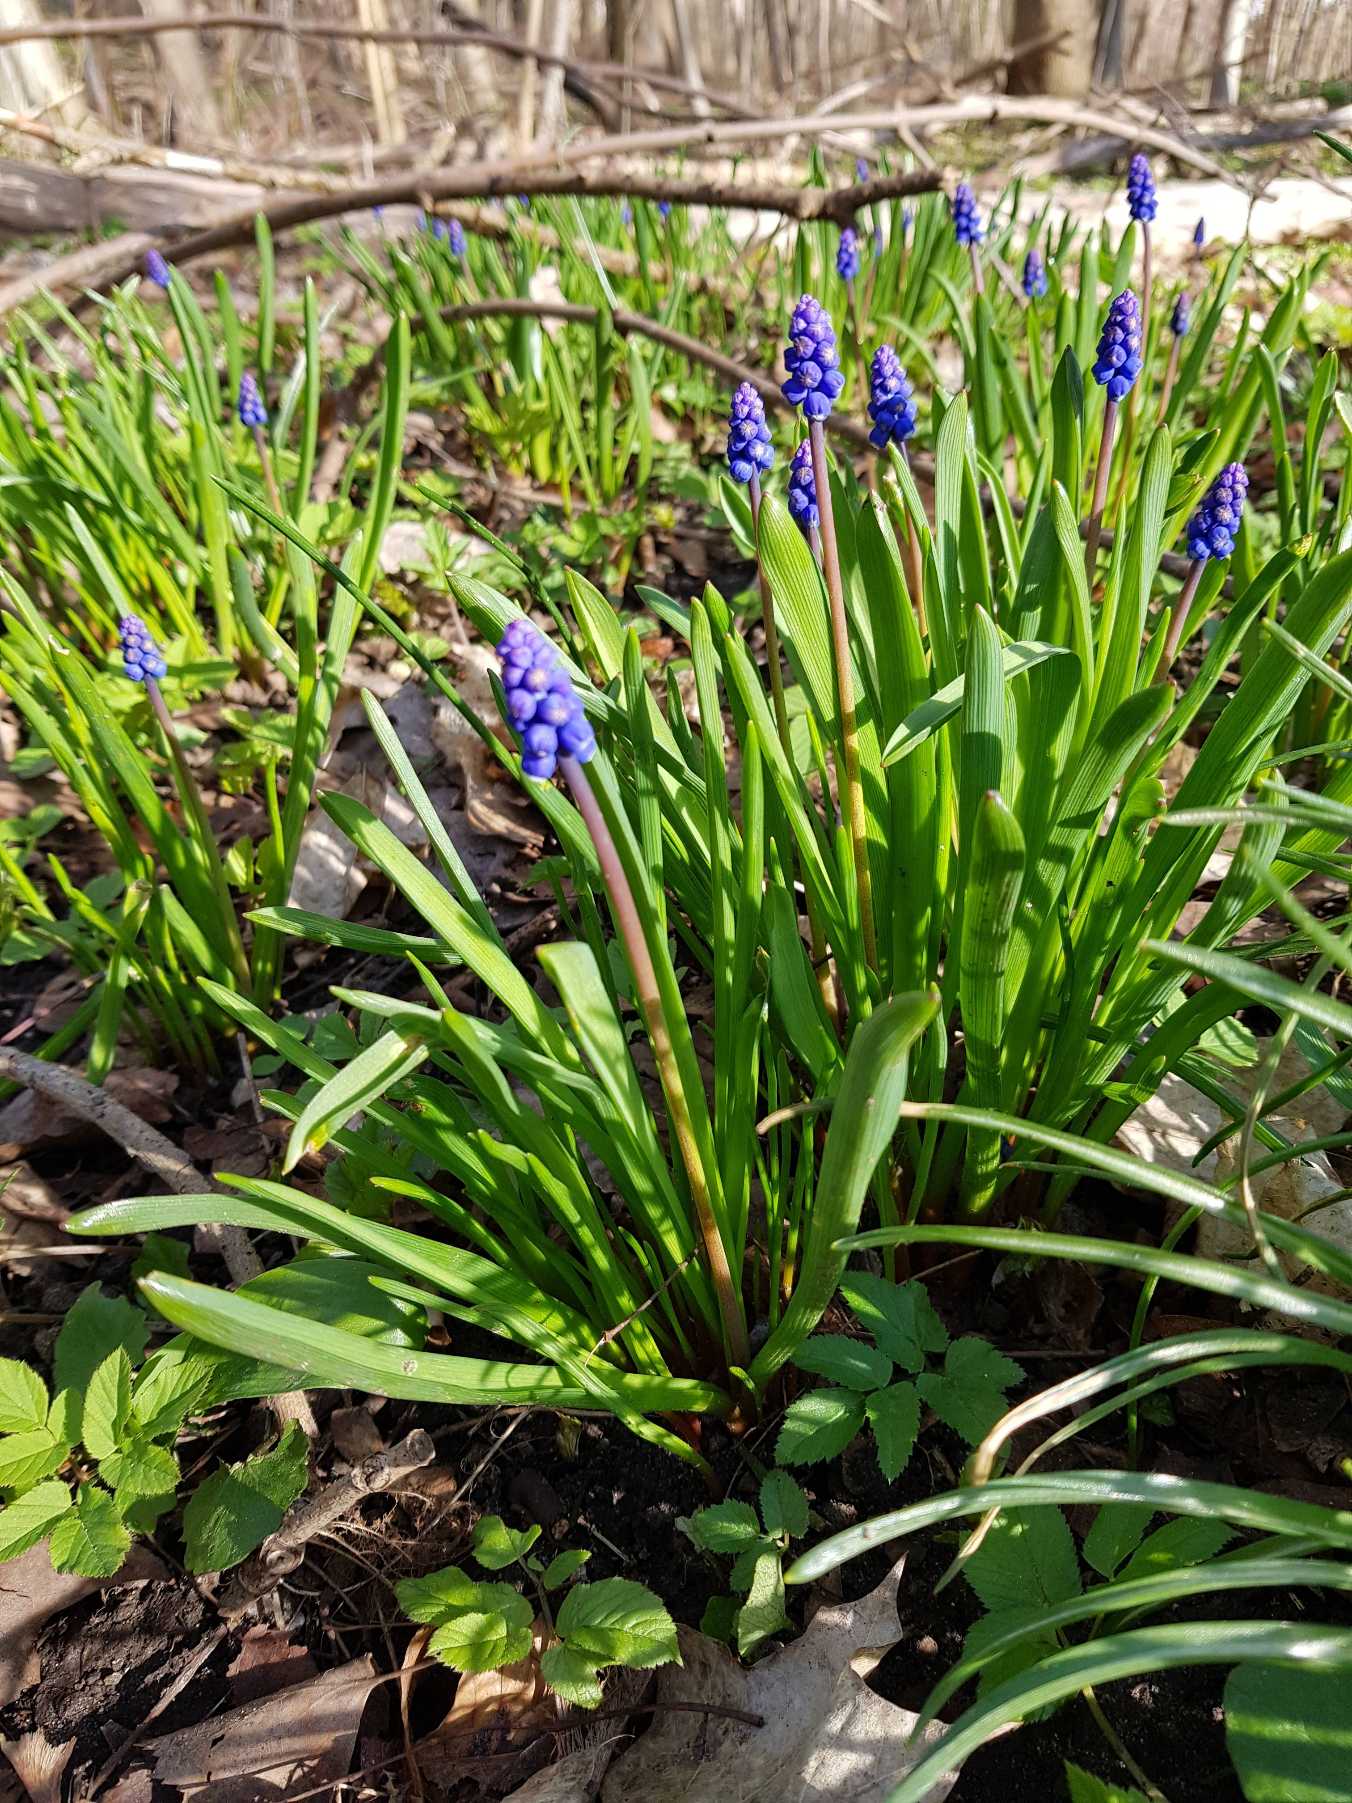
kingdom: Plantae
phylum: Tracheophyta
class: Liliopsida
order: Asparagales
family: Asparagaceae
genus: Muscari
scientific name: Muscari botryoides
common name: Perlehyacint
